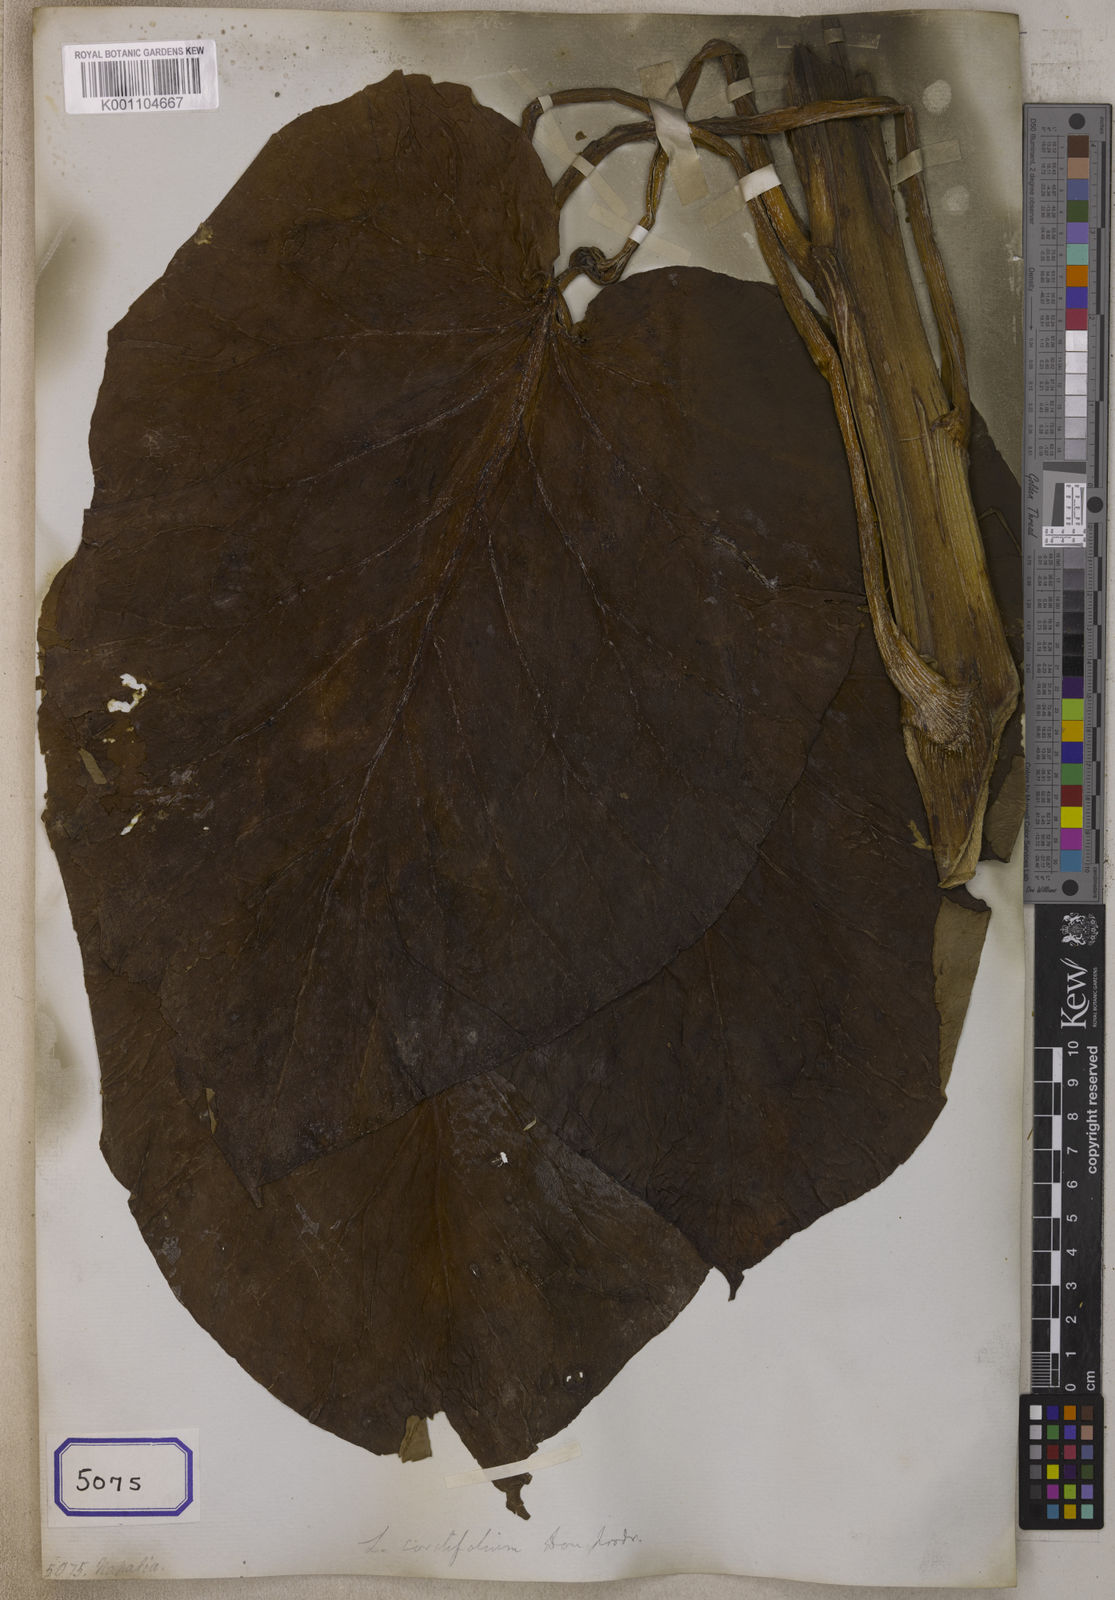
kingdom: Plantae
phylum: Tracheophyta
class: Liliopsida
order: Liliales
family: Liliaceae
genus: Cardiocrinum
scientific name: Cardiocrinum giganteum
